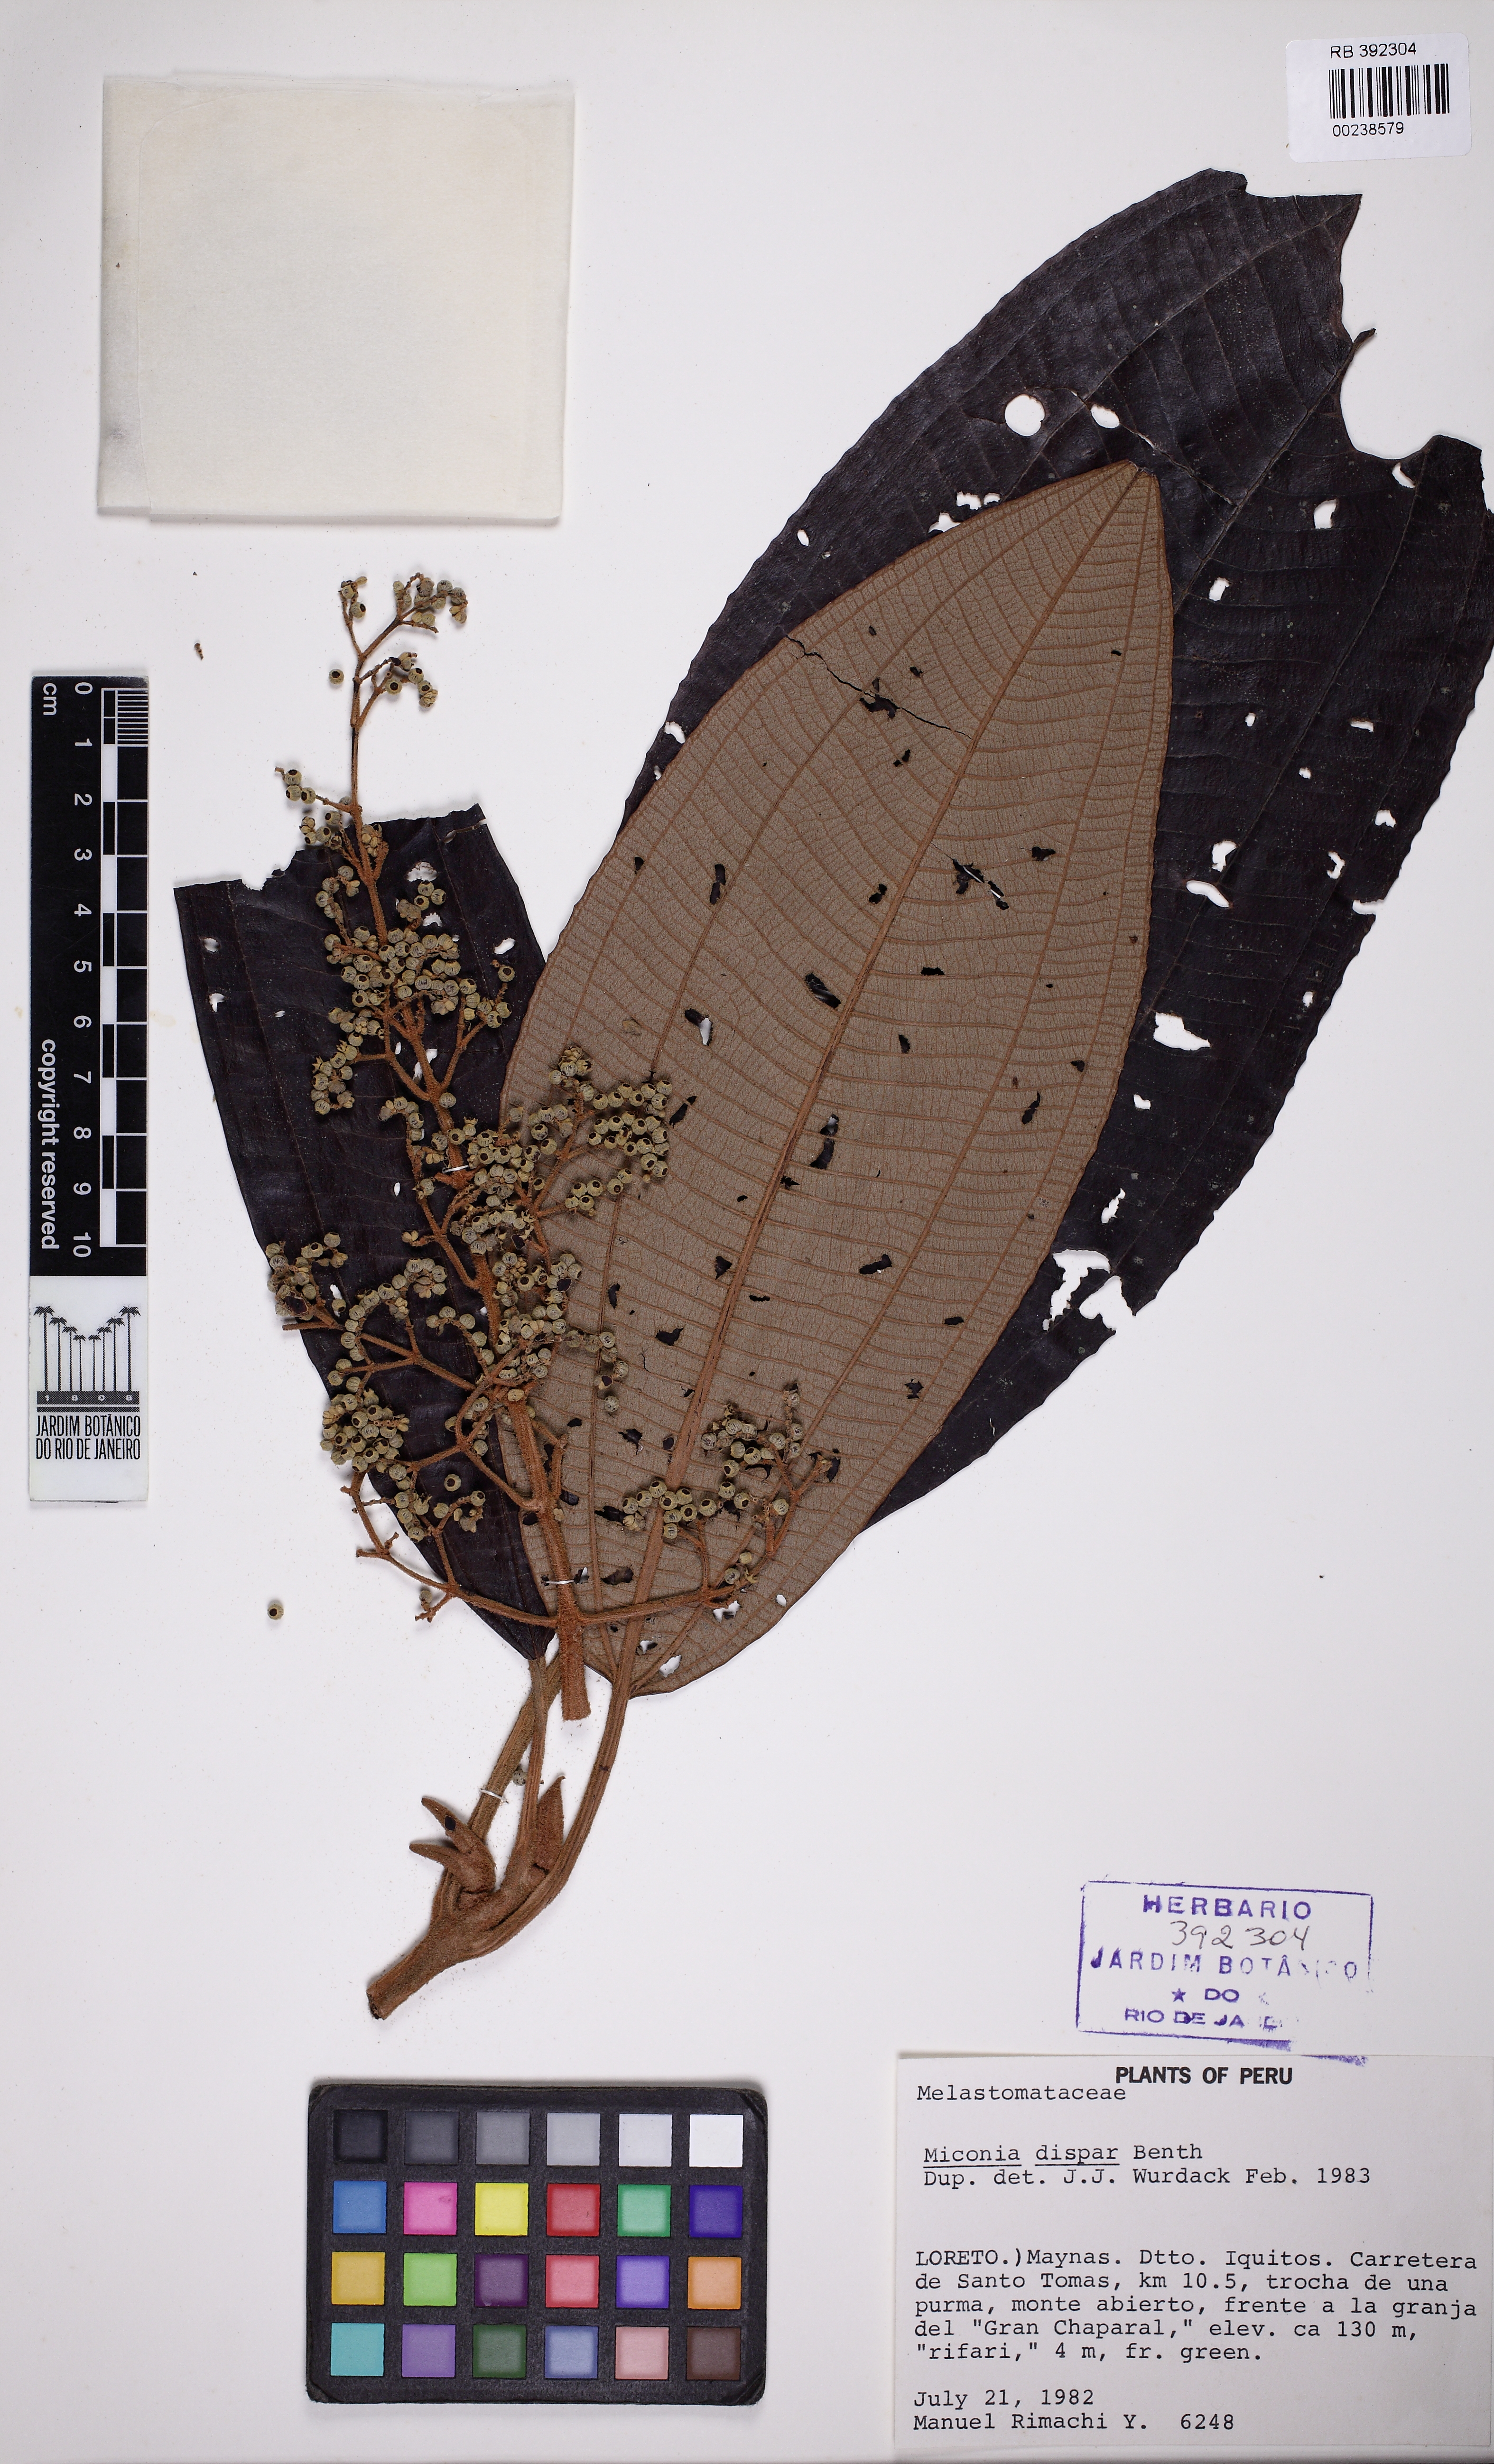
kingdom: Plantae
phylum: Tracheophyta
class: Magnoliopsida
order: Myrtales
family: Melastomataceae
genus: Miconia
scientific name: Miconia dispar
